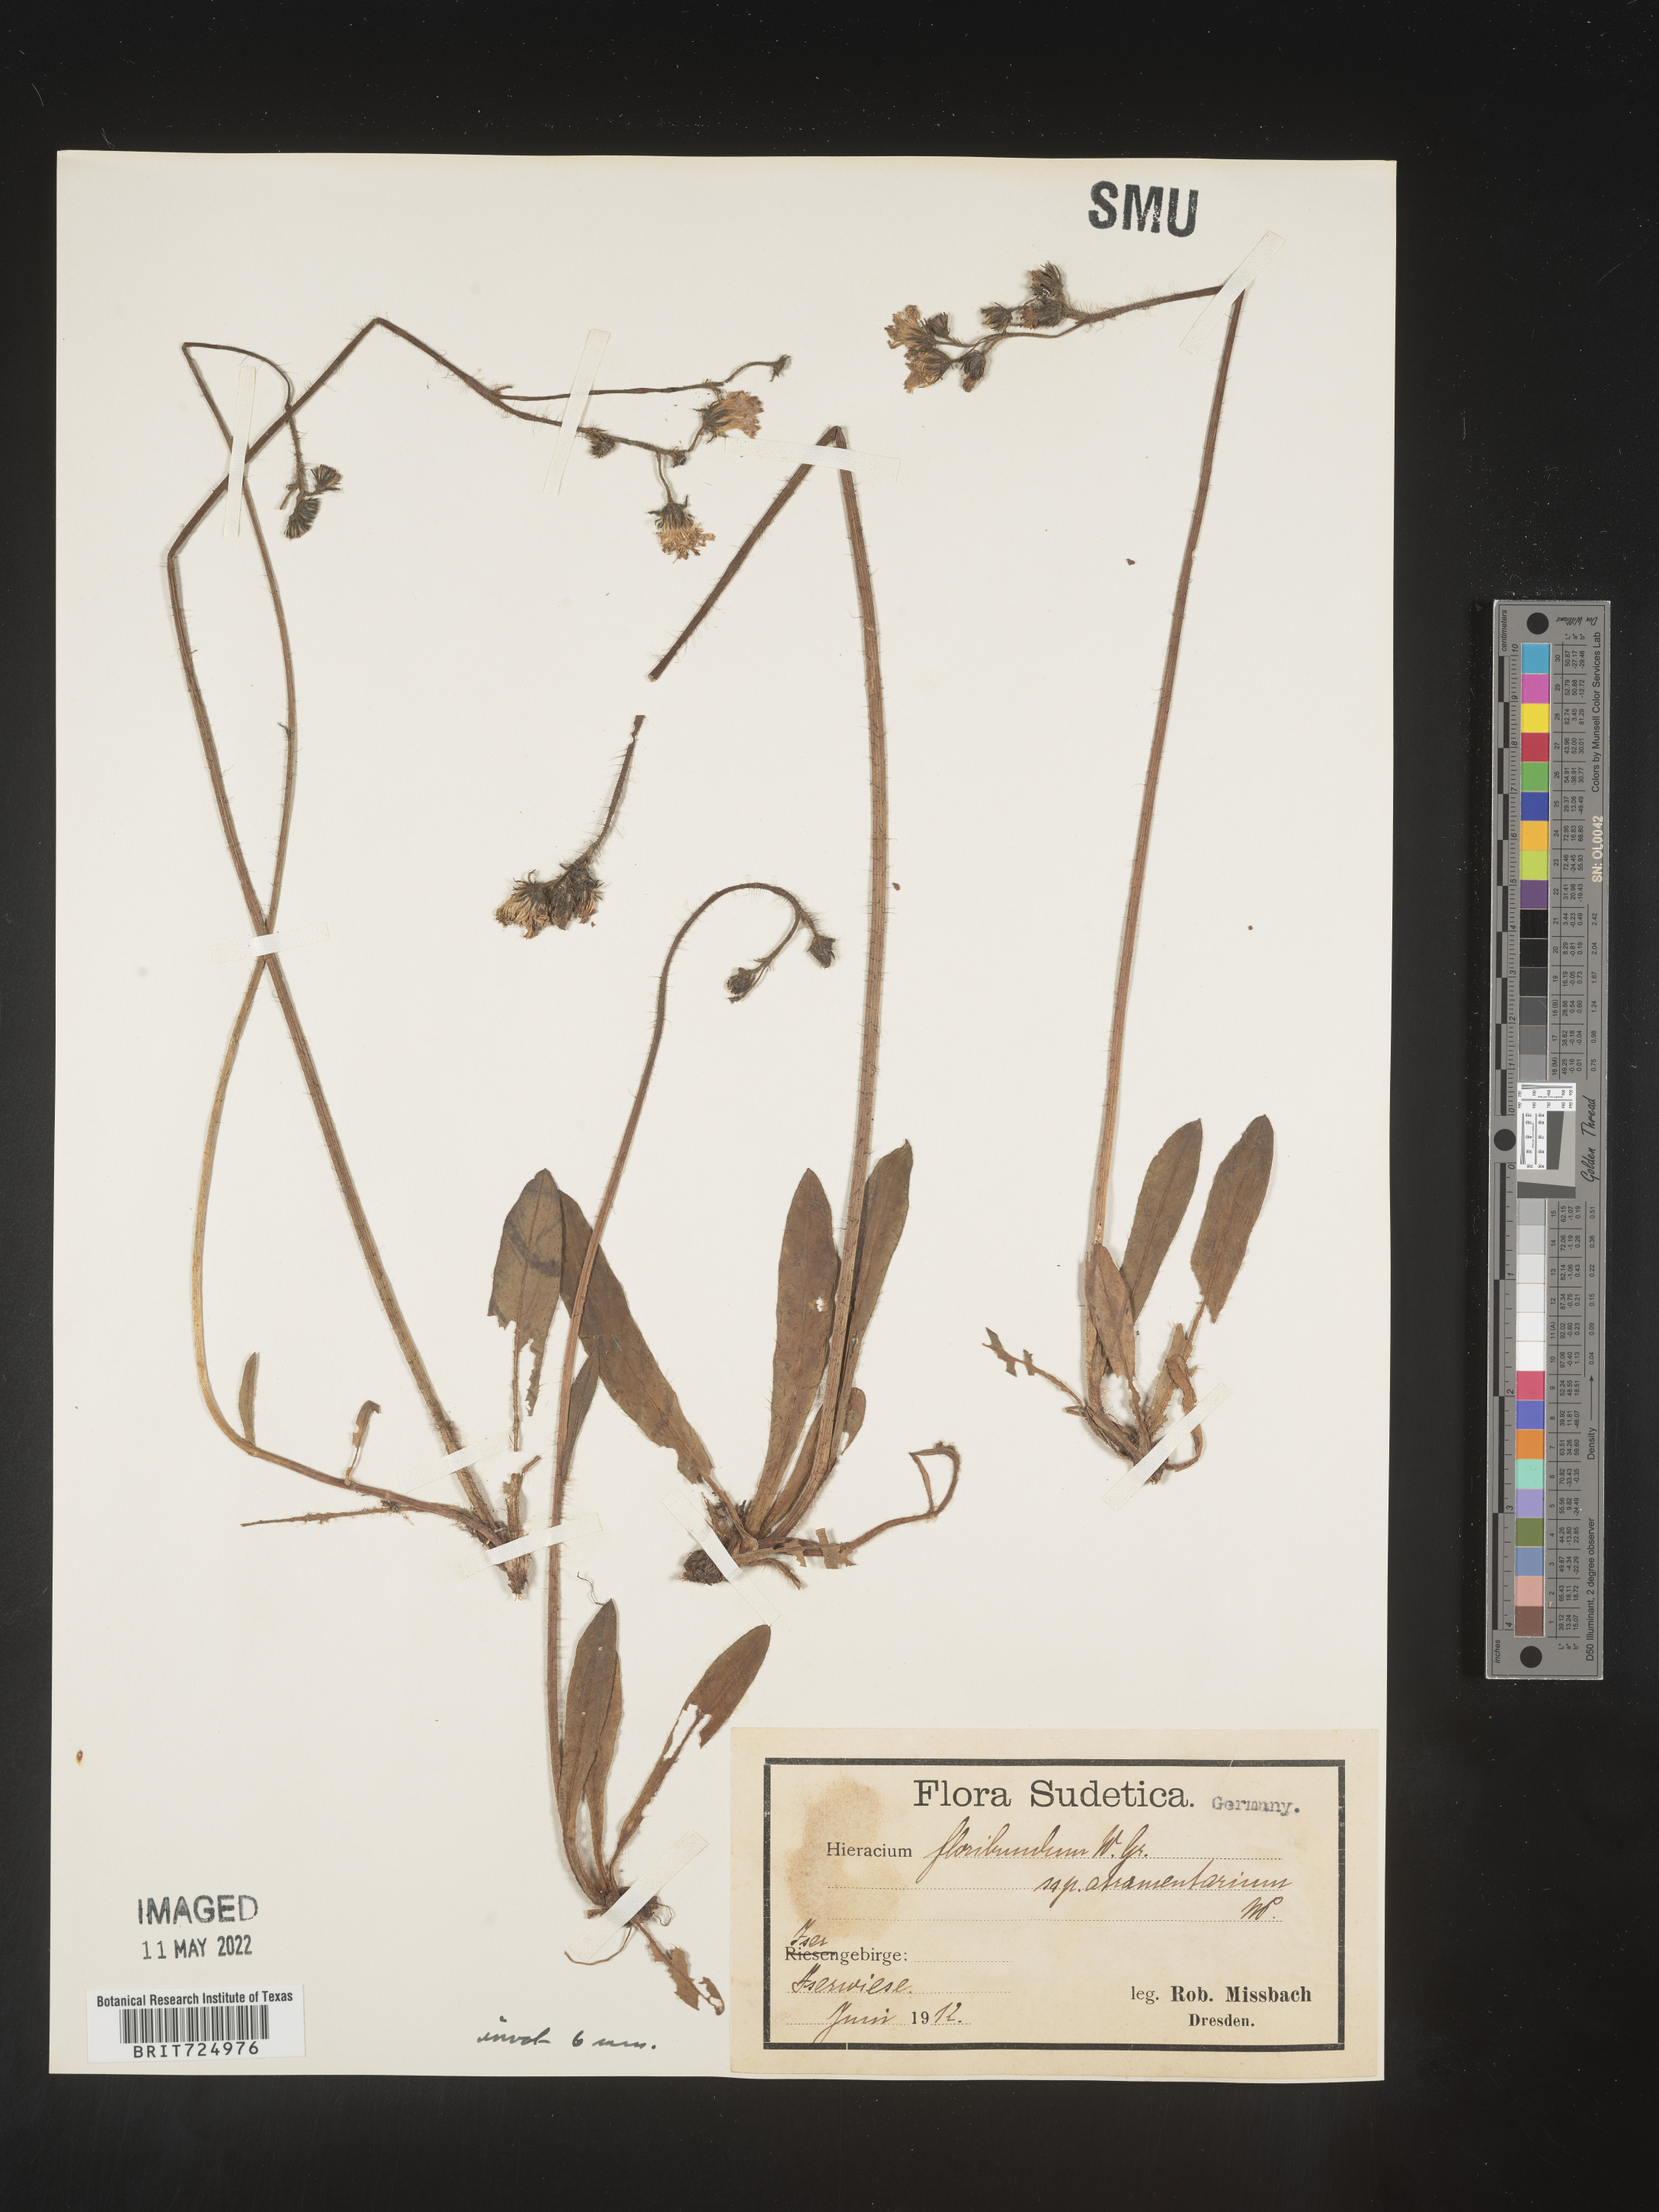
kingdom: Plantae
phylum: Tracheophyta
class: Magnoliopsida
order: Asterales
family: Asteraceae
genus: Hieracium
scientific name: Hieracium
